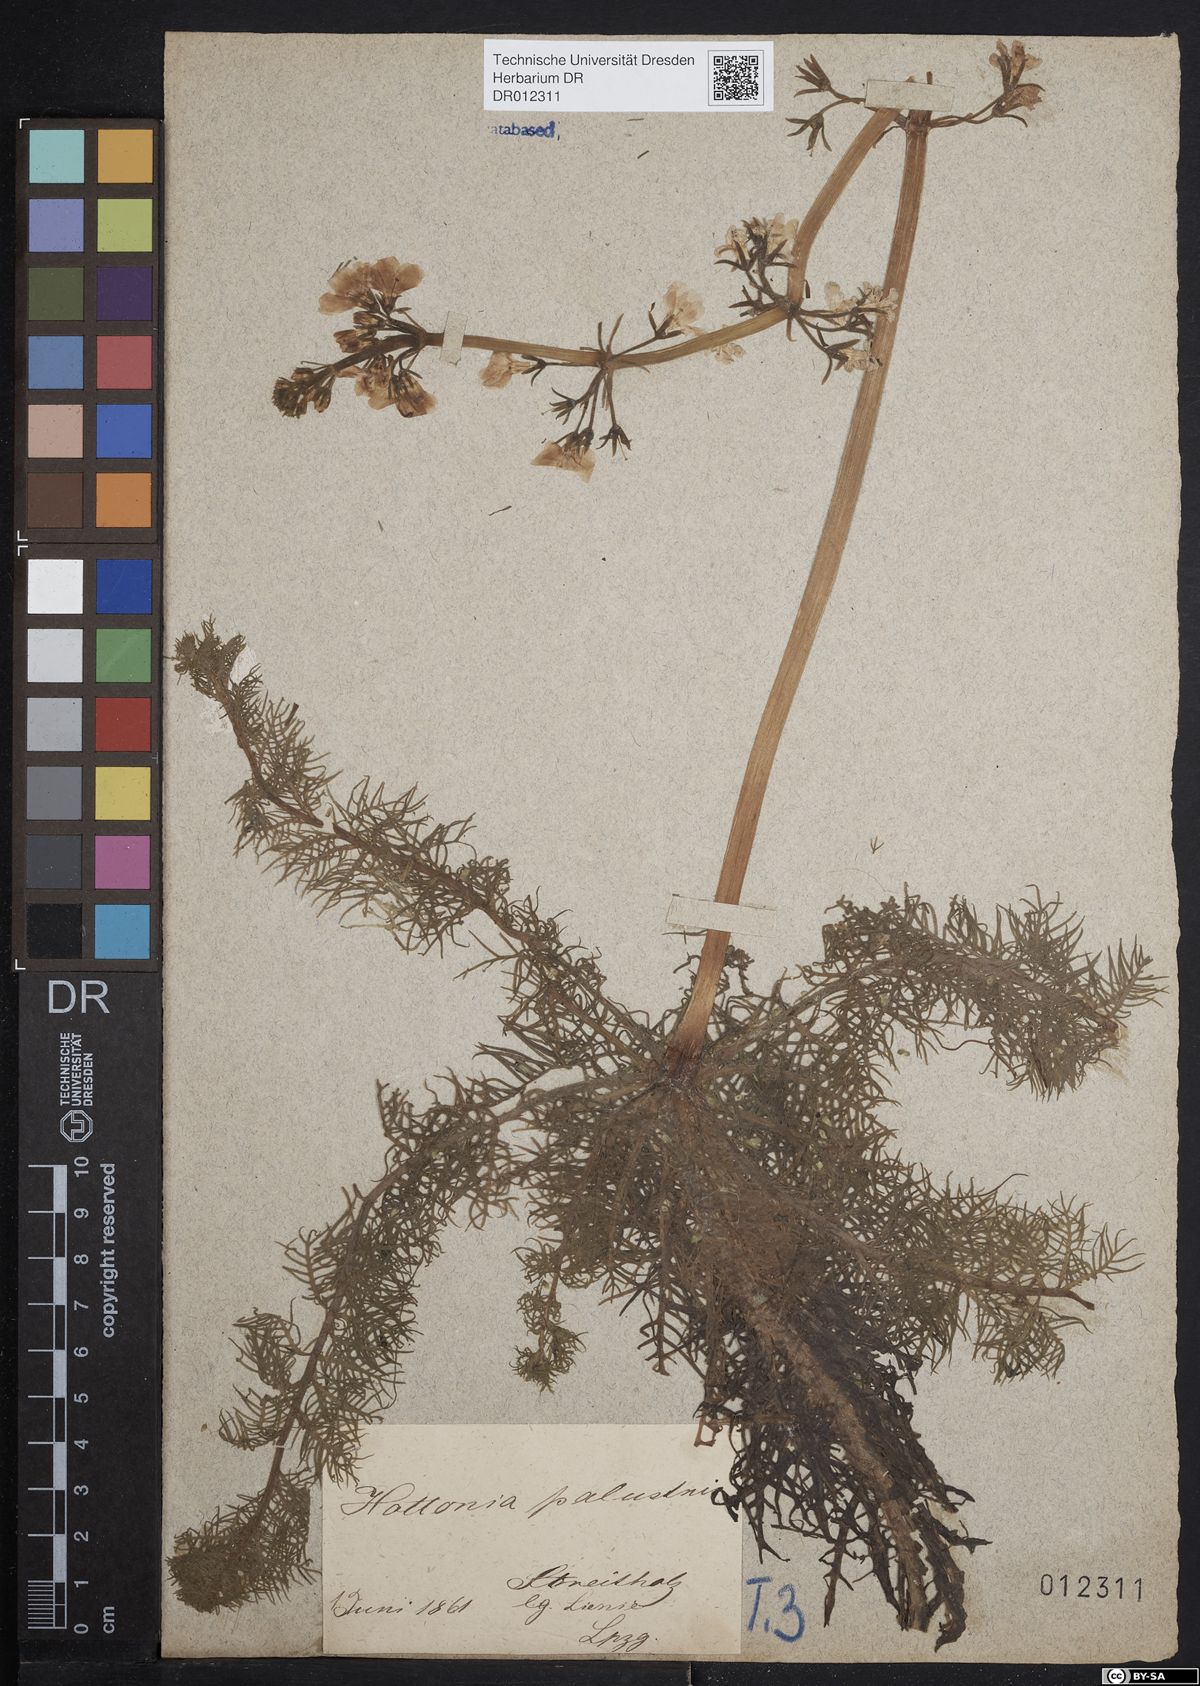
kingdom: Plantae
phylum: Tracheophyta
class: Magnoliopsida
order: Ericales
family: Primulaceae
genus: Hottonia
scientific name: Hottonia palustris
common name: Water-violet
